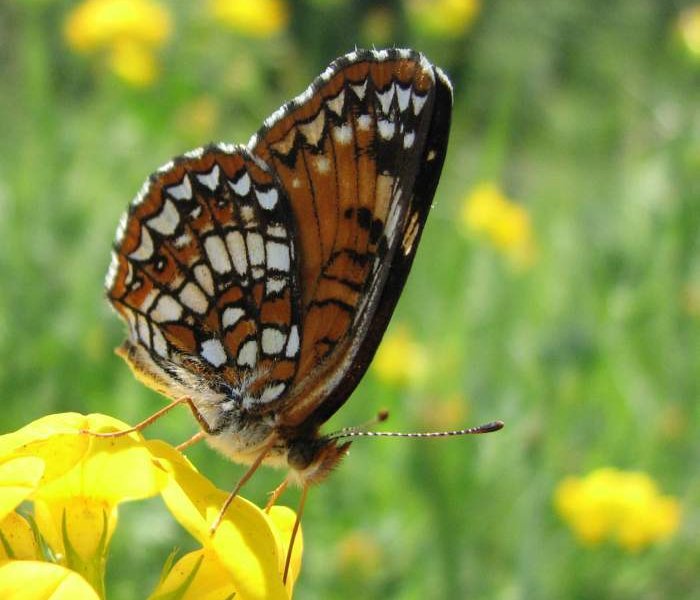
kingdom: Animalia
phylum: Arthropoda
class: Insecta
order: Lepidoptera
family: Nymphalidae
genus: Chlosyne
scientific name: Chlosyne harrisii
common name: Harris's Checkerspot
